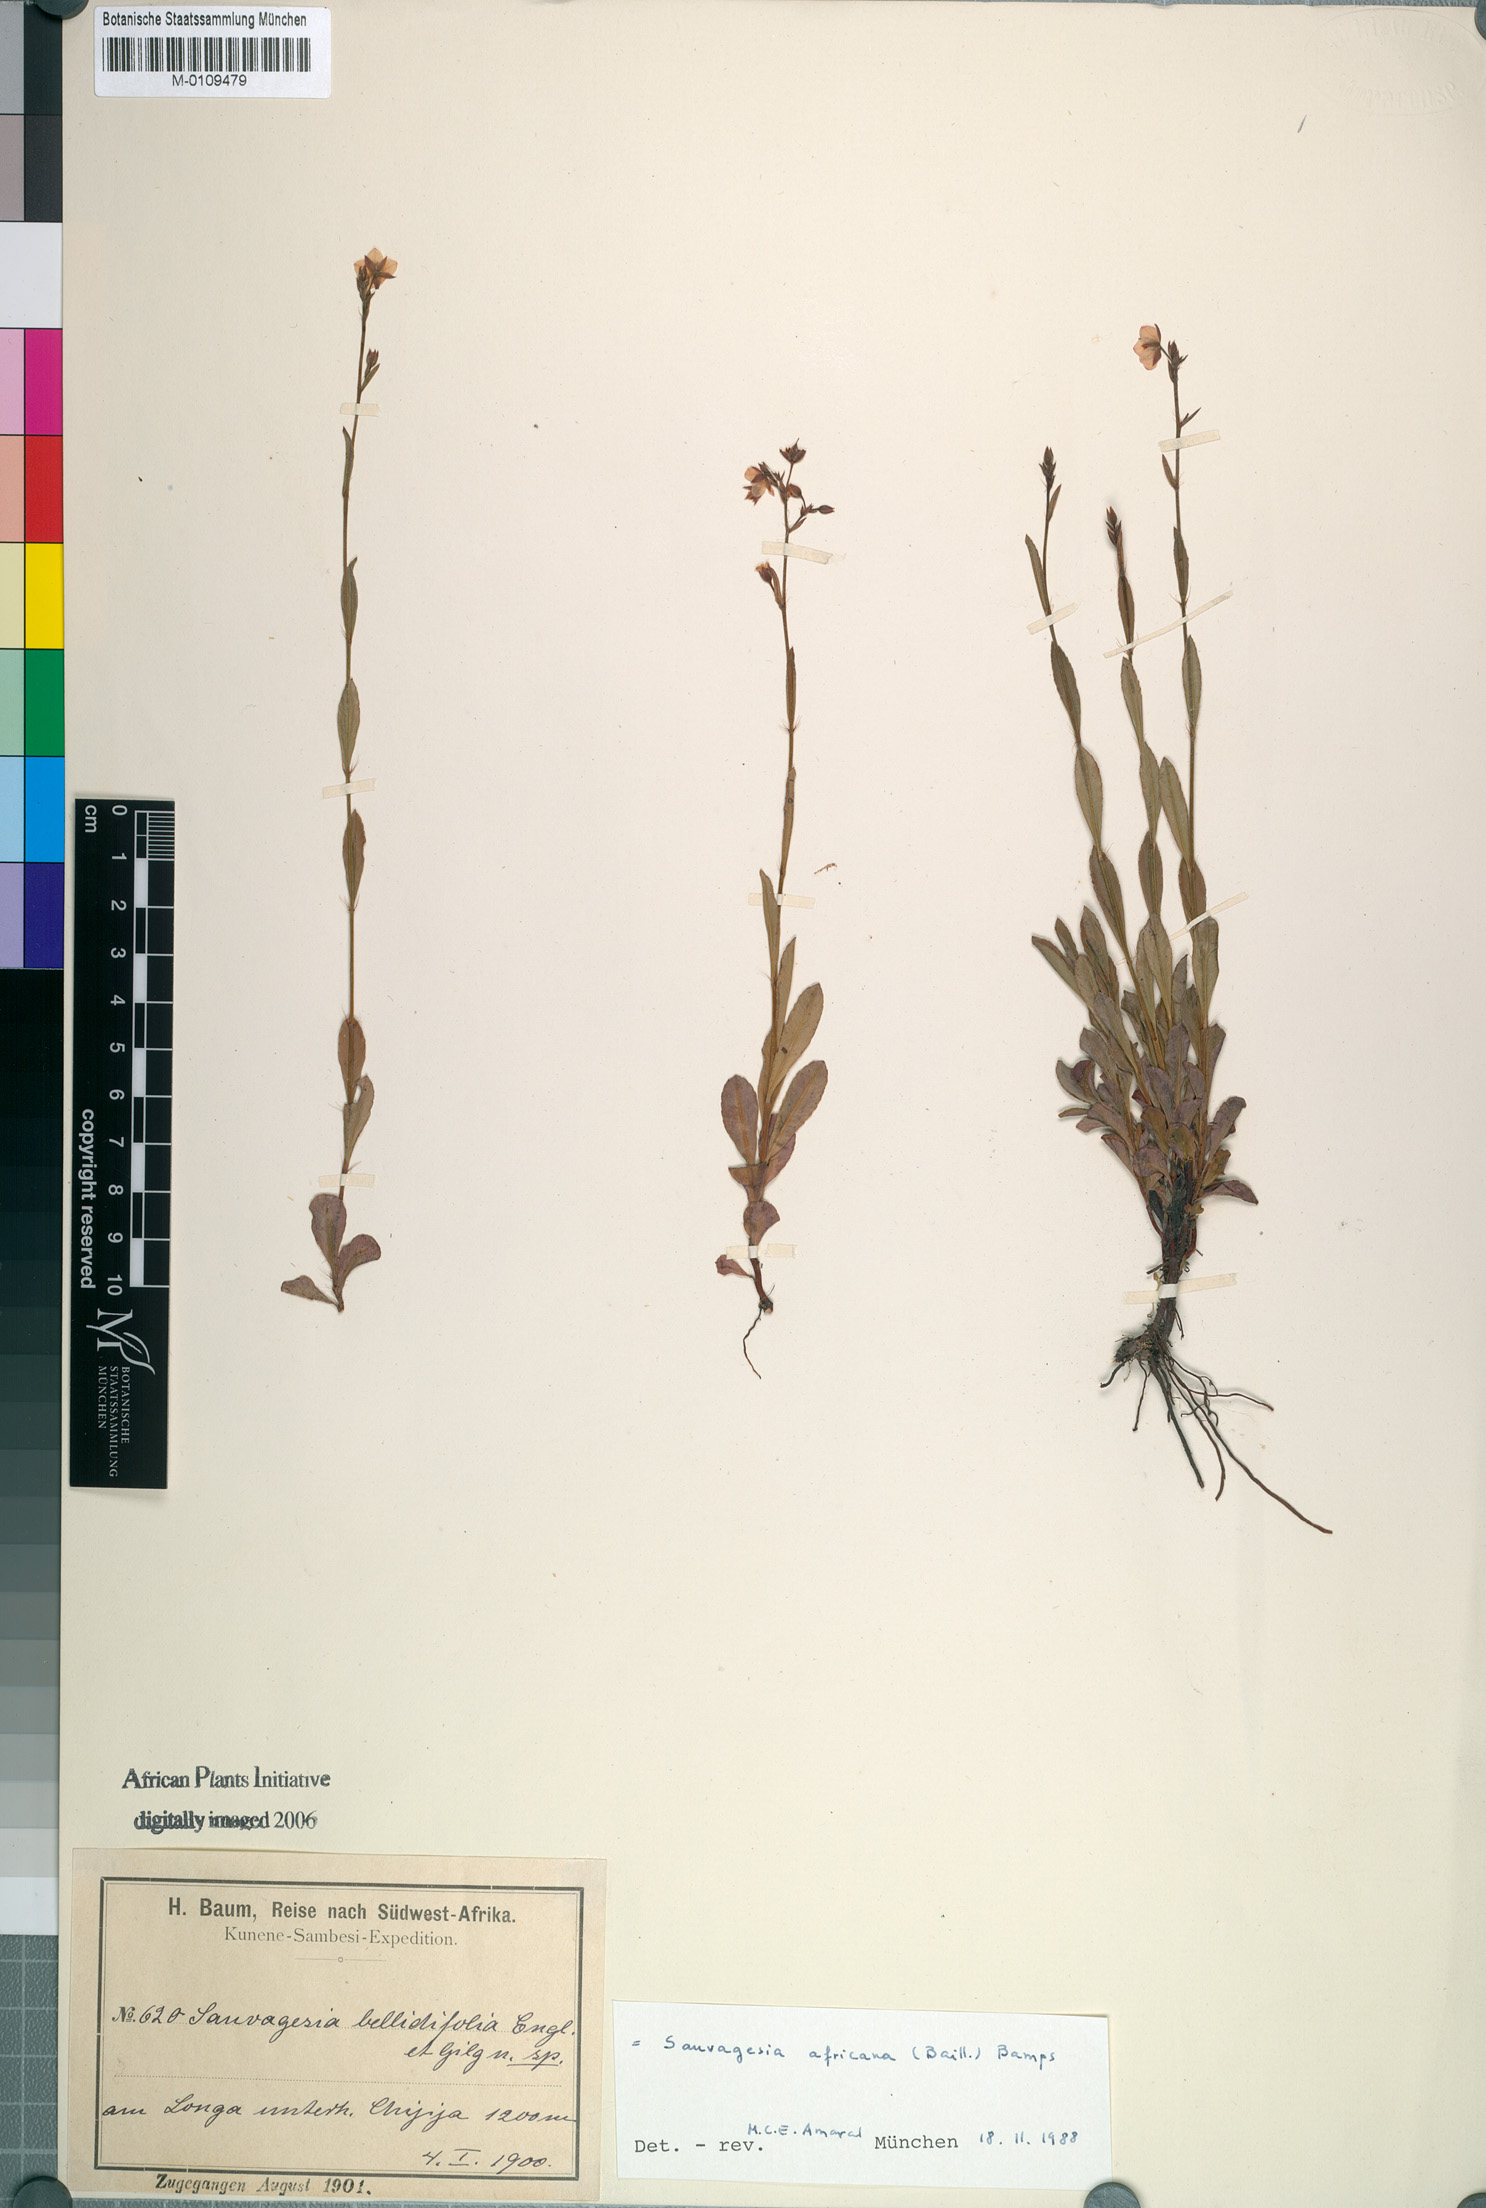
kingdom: Plantae
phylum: Tracheophyta
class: Magnoliopsida
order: Malpighiales
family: Ochnaceae
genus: Sauvagesia
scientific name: Sauvagesia africana
